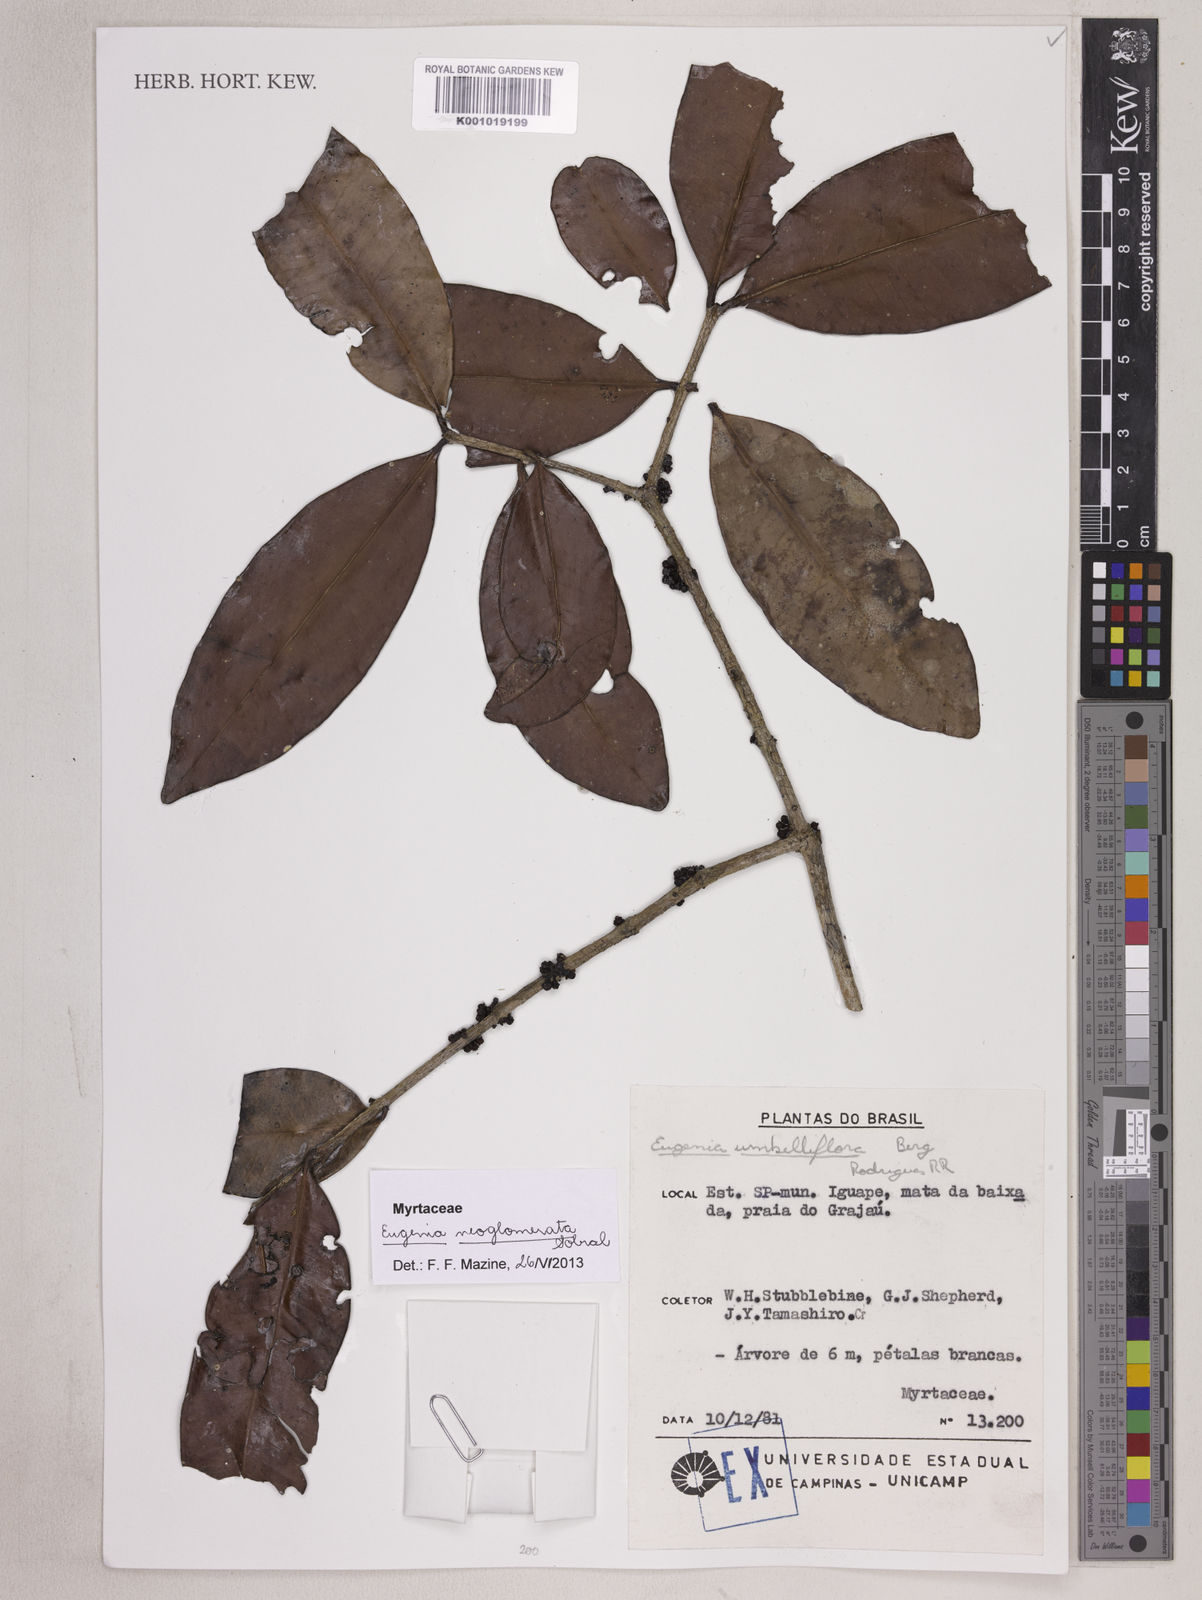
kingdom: Plantae
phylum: Tracheophyta
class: Magnoliopsida
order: Myrtales
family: Myrtaceae
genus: Eugenia
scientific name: Eugenia neoglomerata
